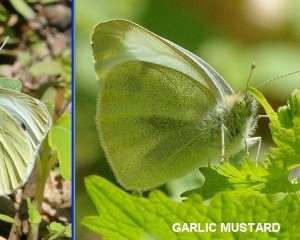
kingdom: Animalia
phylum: Arthropoda
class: Insecta
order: Lepidoptera
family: Pieridae
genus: Pieris
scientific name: Pieris rapae
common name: Cabbage White
